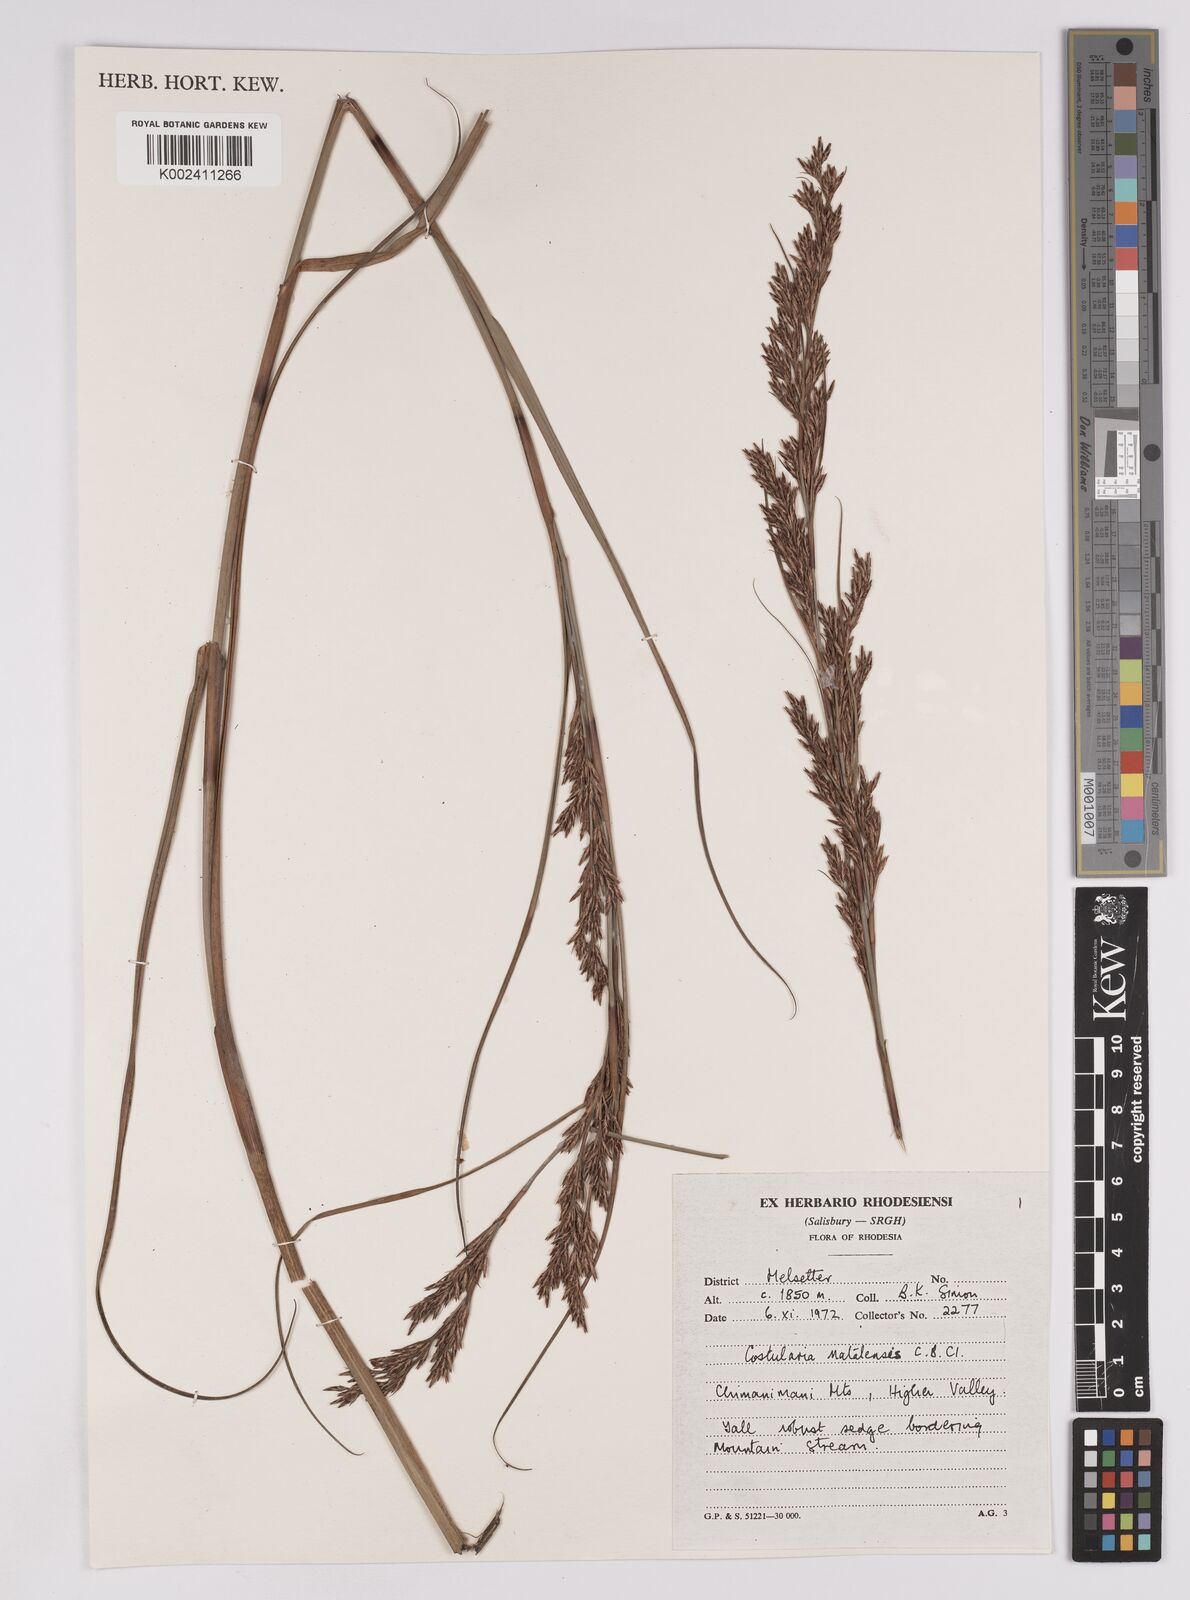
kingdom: Plantae
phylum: Tracheophyta
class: Liliopsida
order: Poales
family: Cyperaceae
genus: Costularia
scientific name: Costularia natalensis
